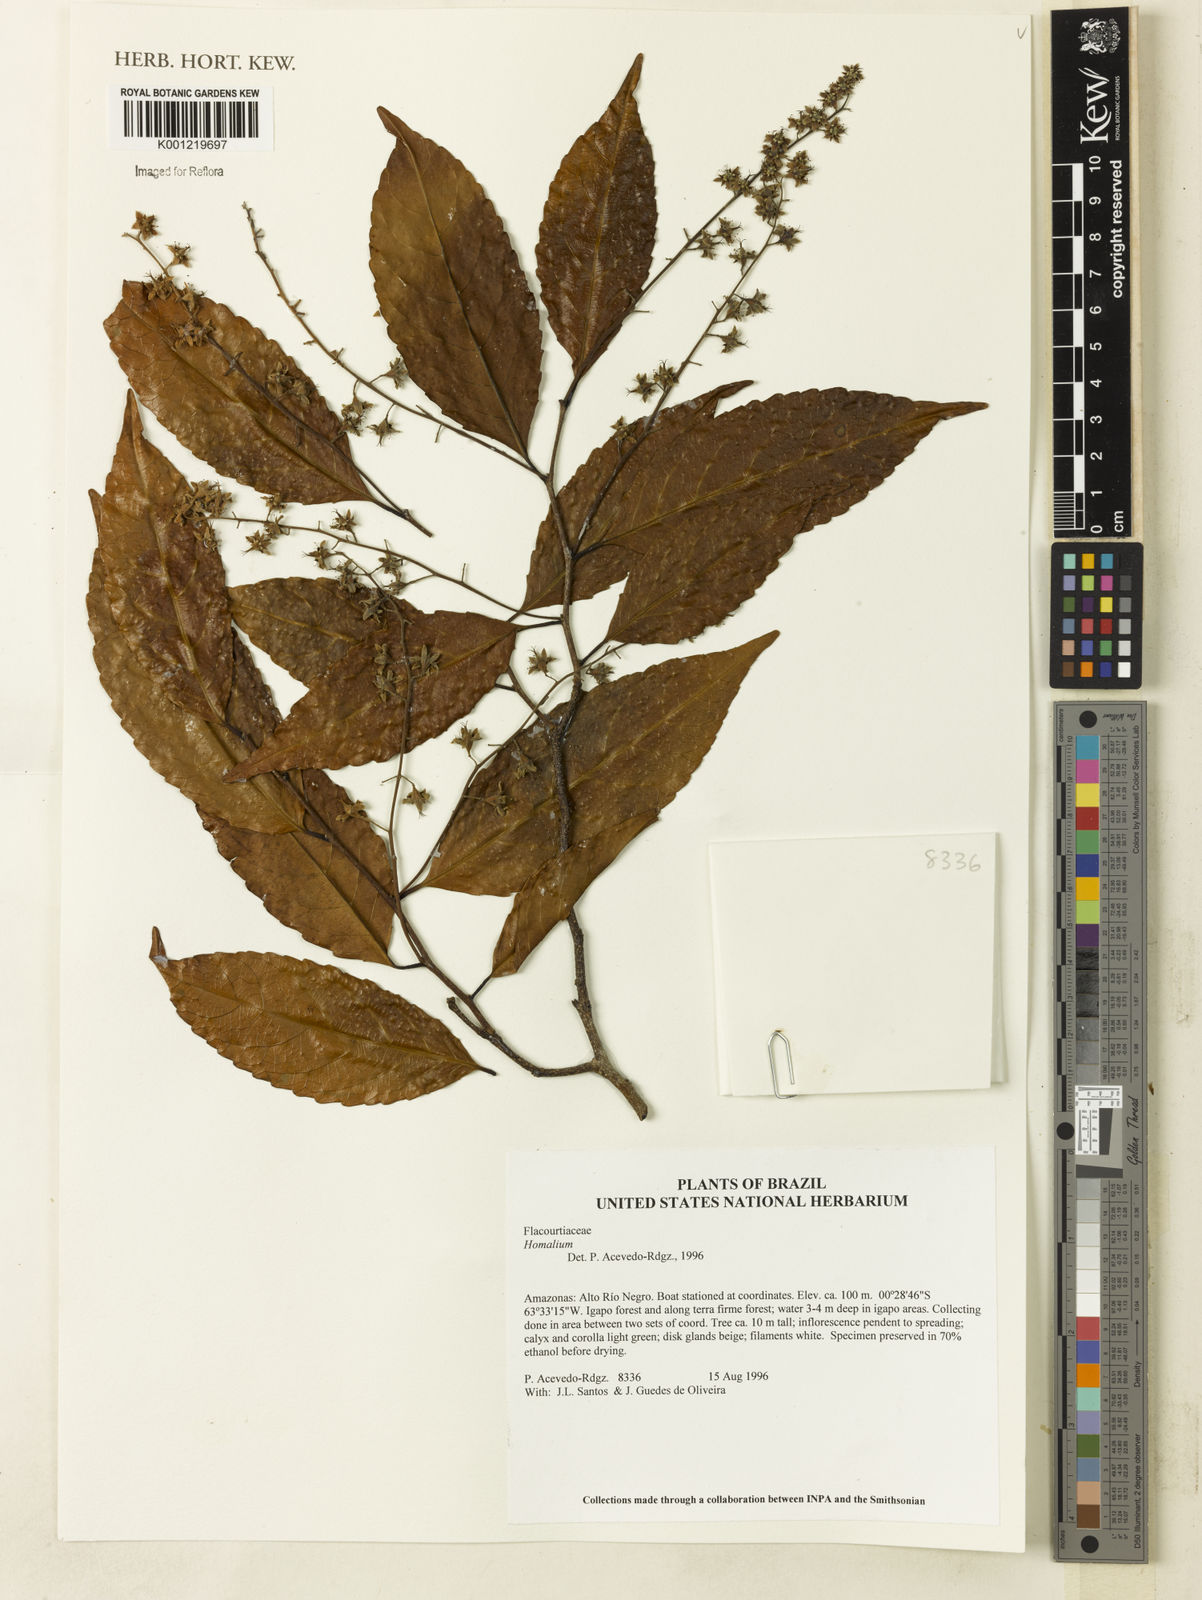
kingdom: Plantae
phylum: Tracheophyta
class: Magnoliopsida
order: Malpighiales
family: Salicaceae
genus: Homalium
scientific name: Homalium
